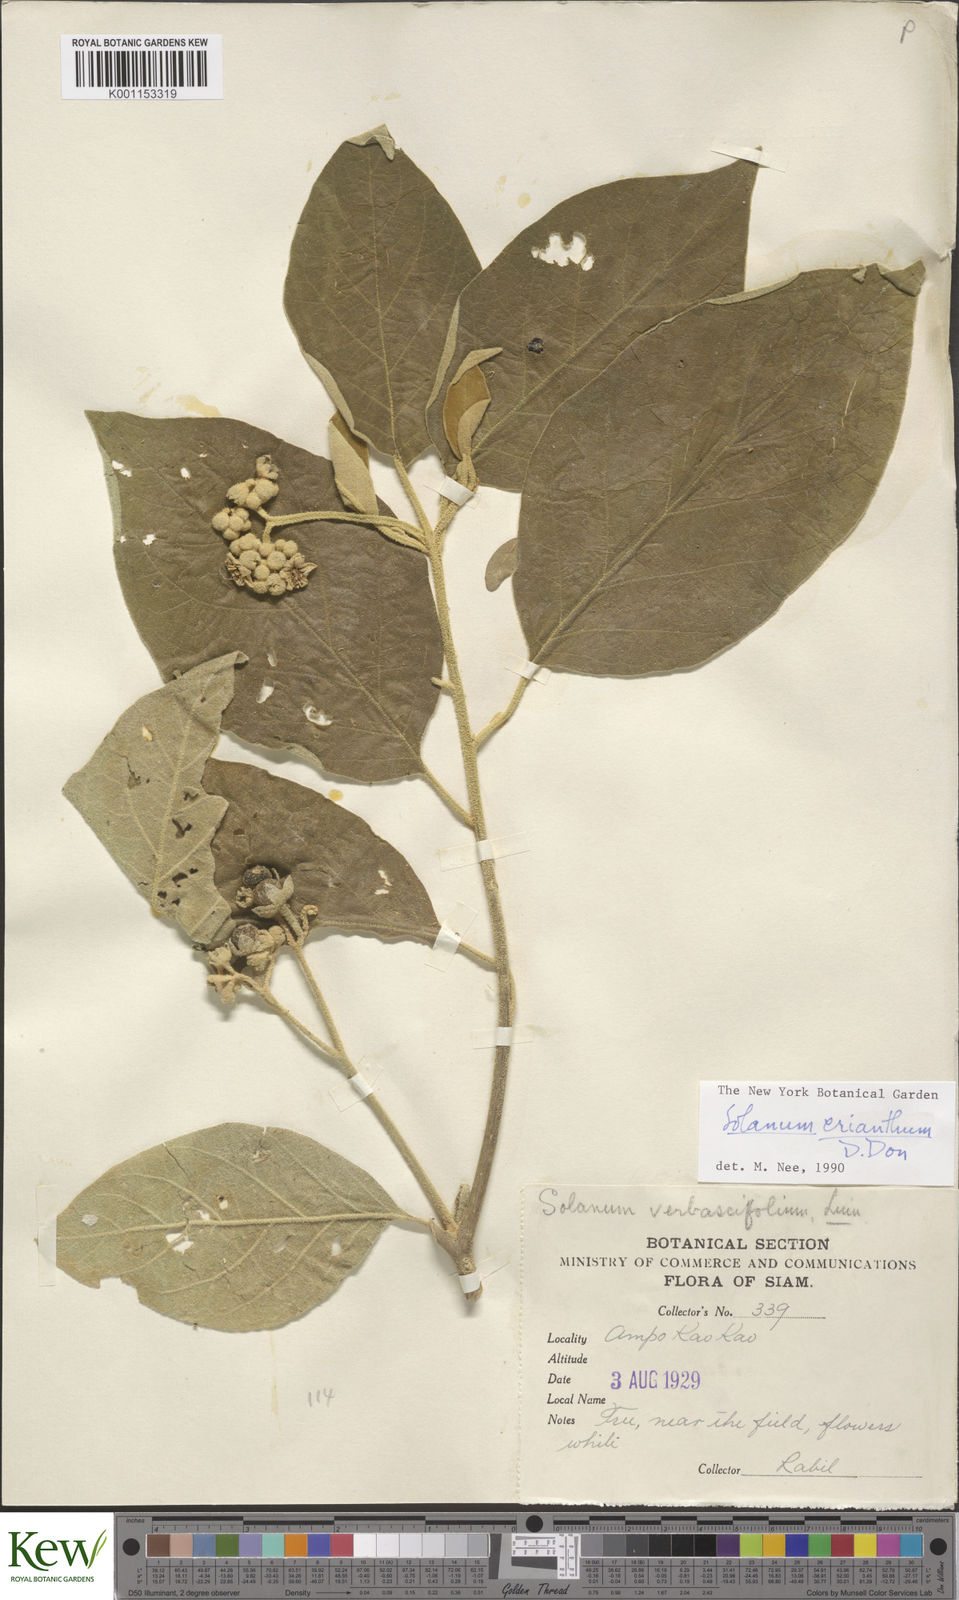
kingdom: Plantae
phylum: Tracheophyta
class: Magnoliopsida
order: Solanales
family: Solanaceae
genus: Solanum
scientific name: Solanum erianthum
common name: Tobacco-tree
